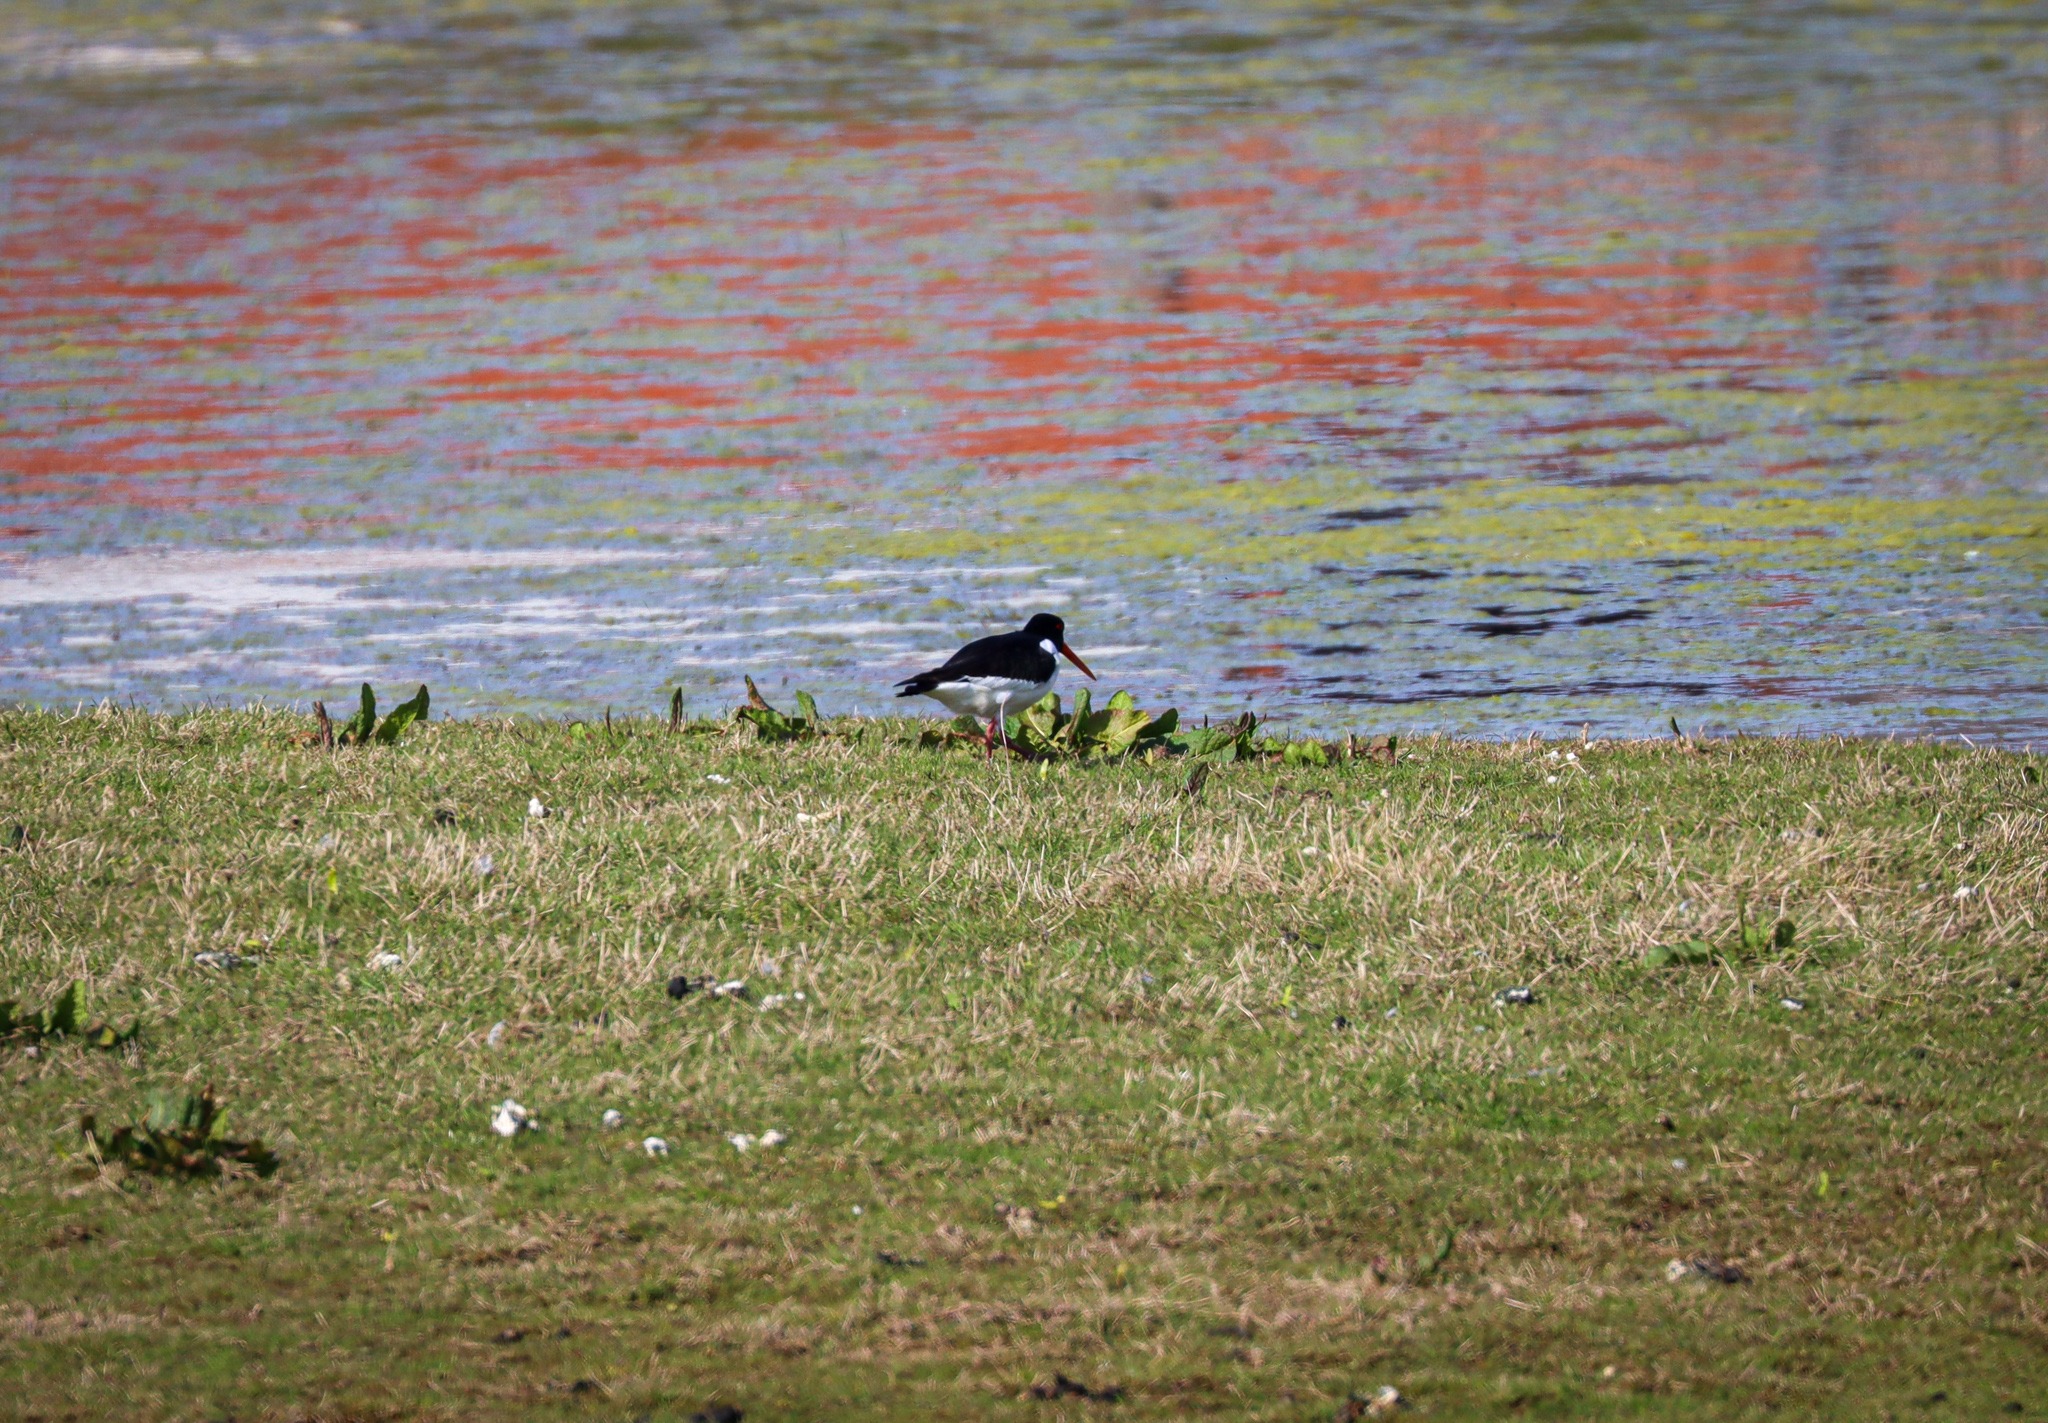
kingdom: Animalia
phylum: Chordata
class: Aves
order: Charadriiformes
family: Haematopodidae
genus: Haematopus
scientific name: Haematopus ostralegus
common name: Strandskade
